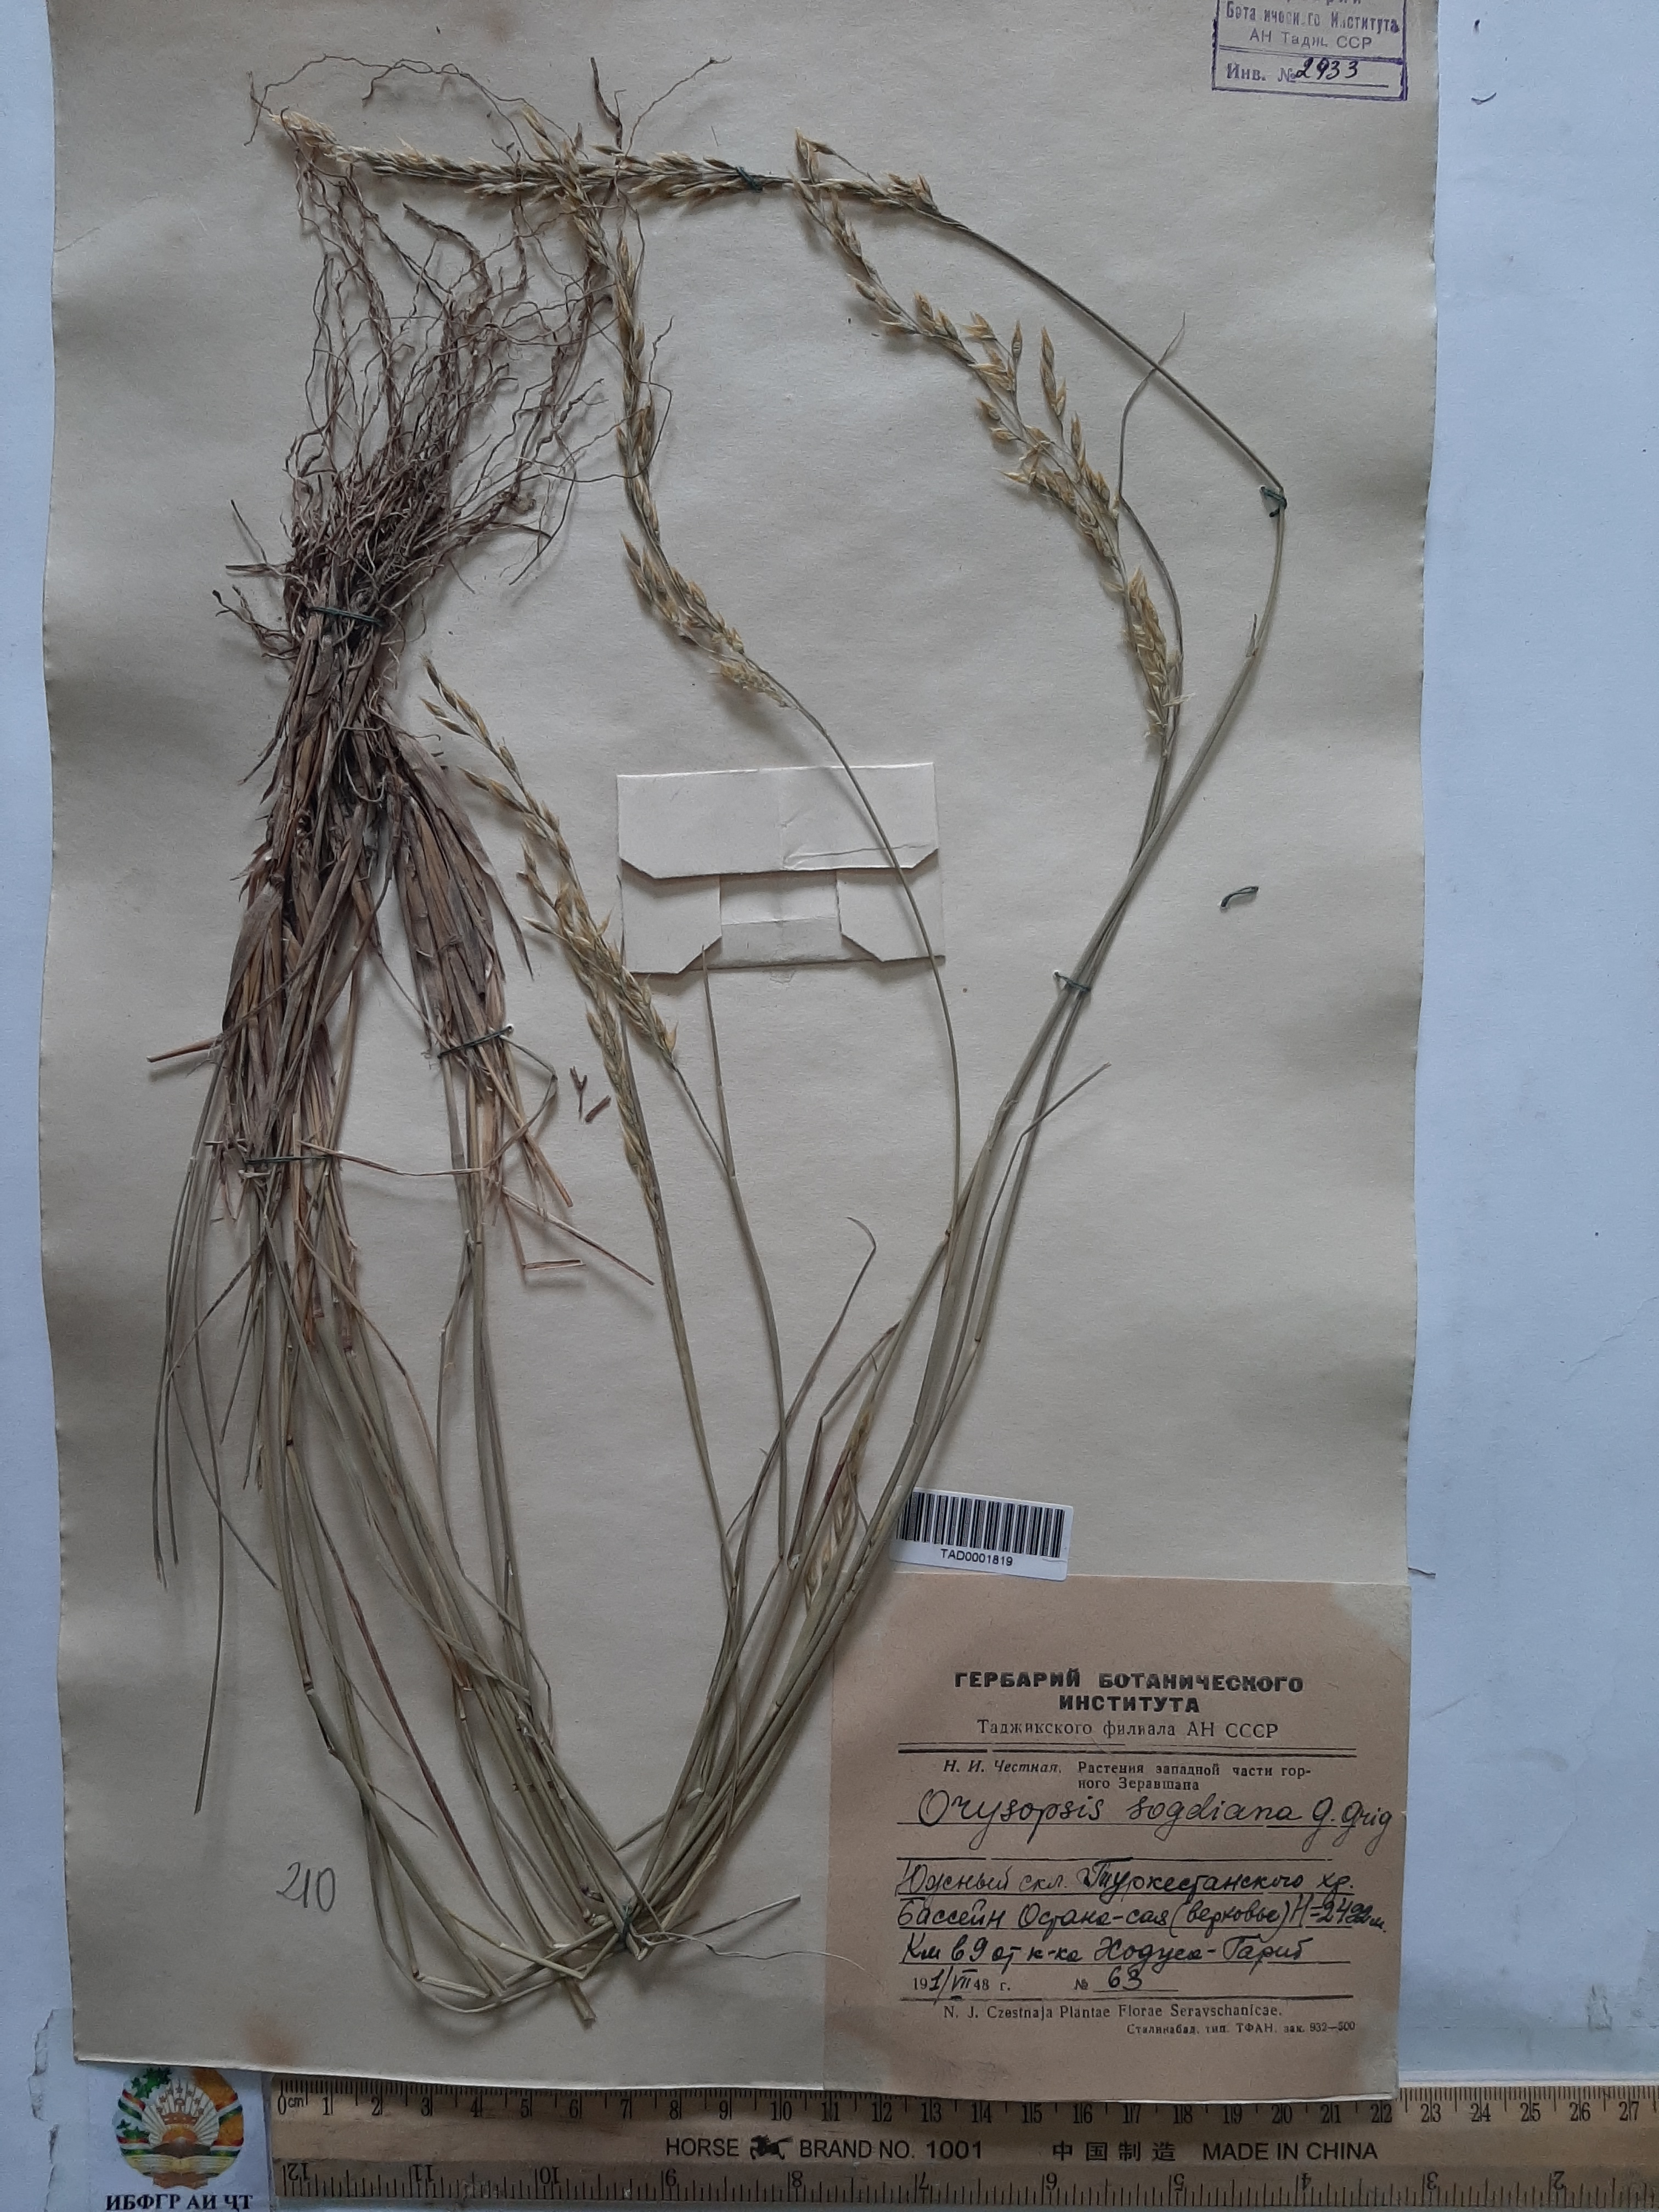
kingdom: Plantae
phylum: Tracheophyta
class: Liliopsida
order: Poales
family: Poaceae
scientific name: Poaceae
